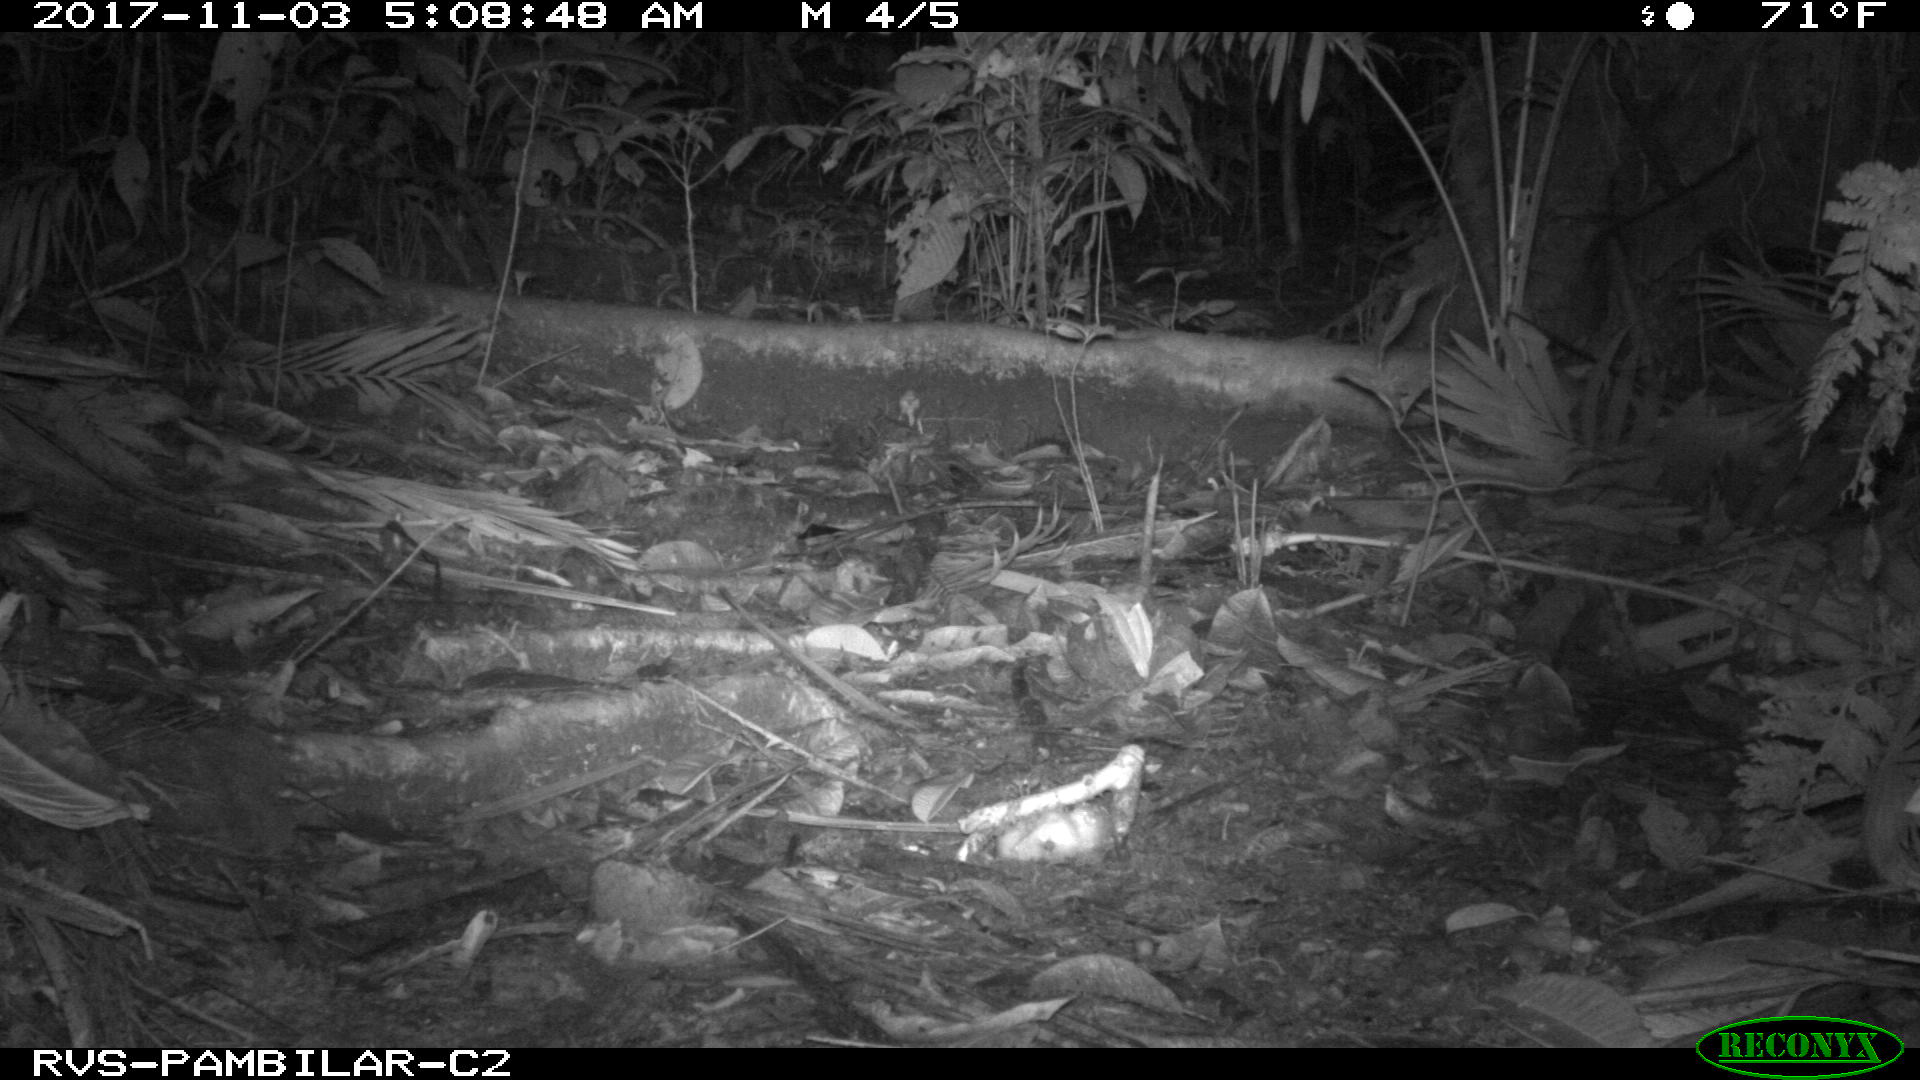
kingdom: Animalia
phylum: Chordata
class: Mammalia
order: Rodentia
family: Echimyidae
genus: Proechimys
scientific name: Proechimys
